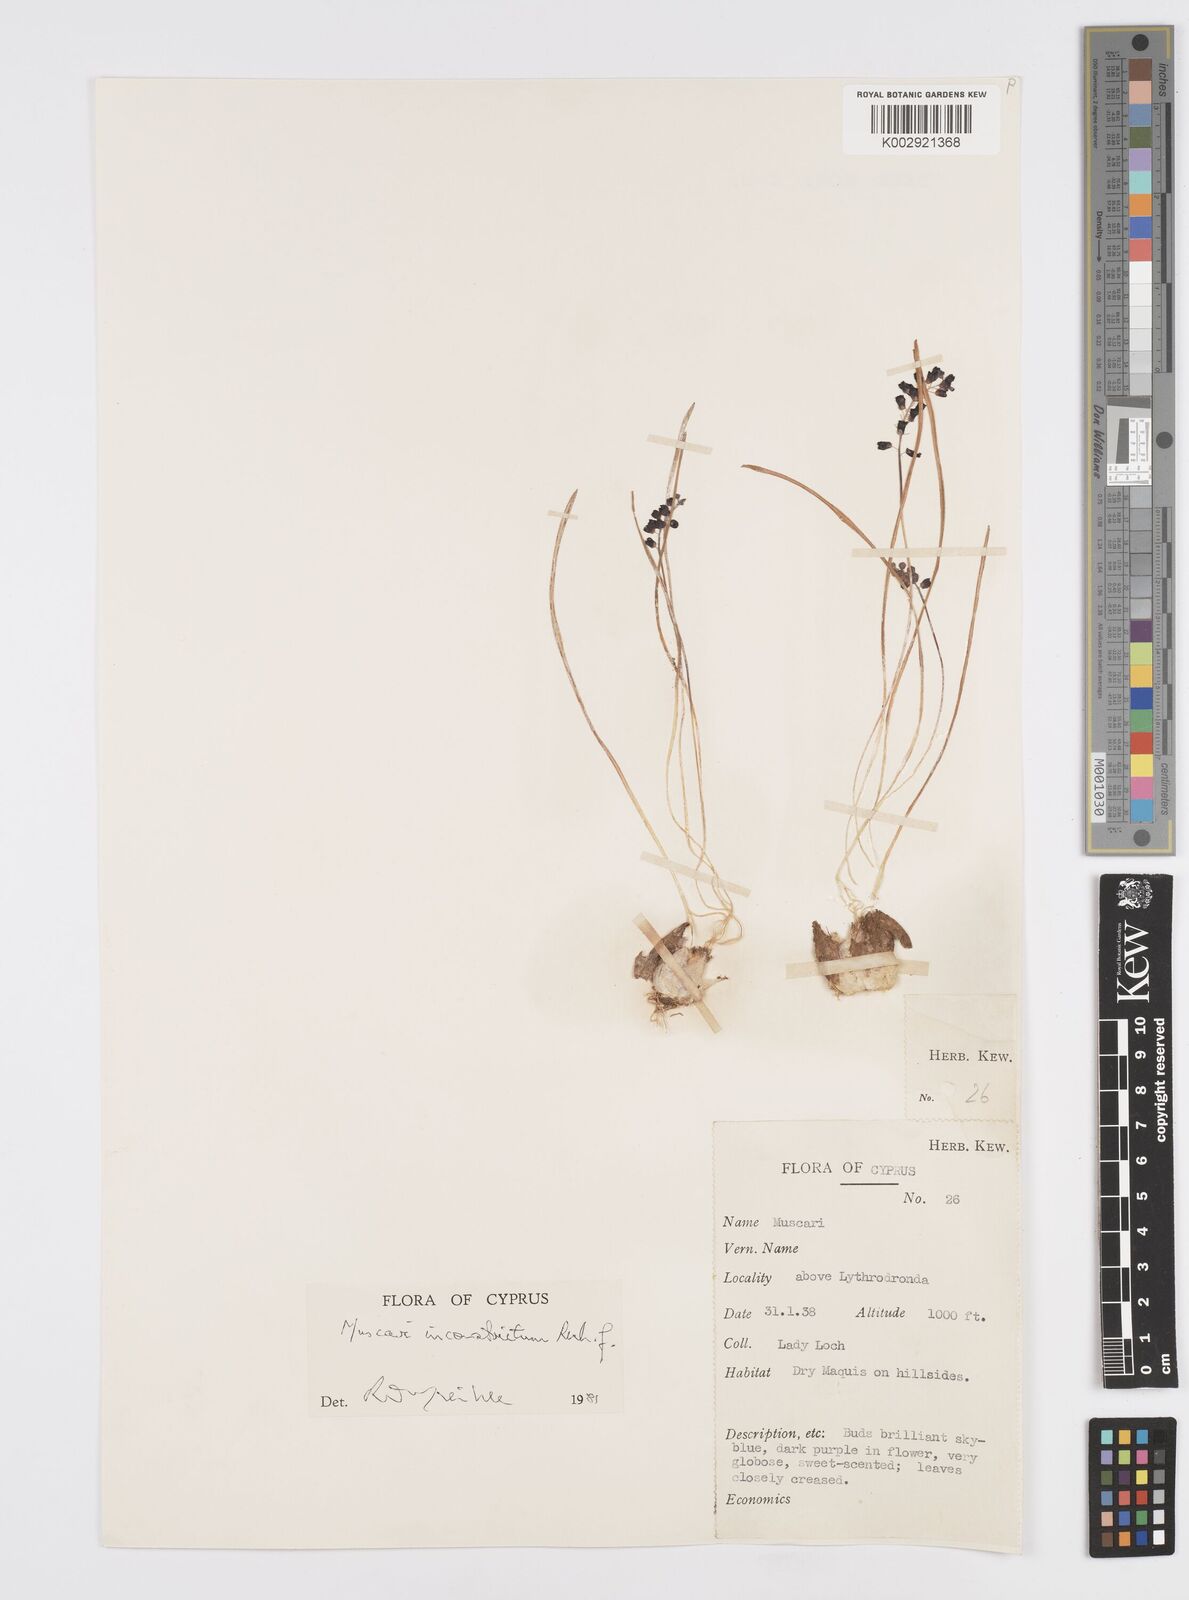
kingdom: Plantae
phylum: Tracheophyta
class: Liliopsida
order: Asparagales
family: Asparagaceae
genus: Muscari
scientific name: Muscari
